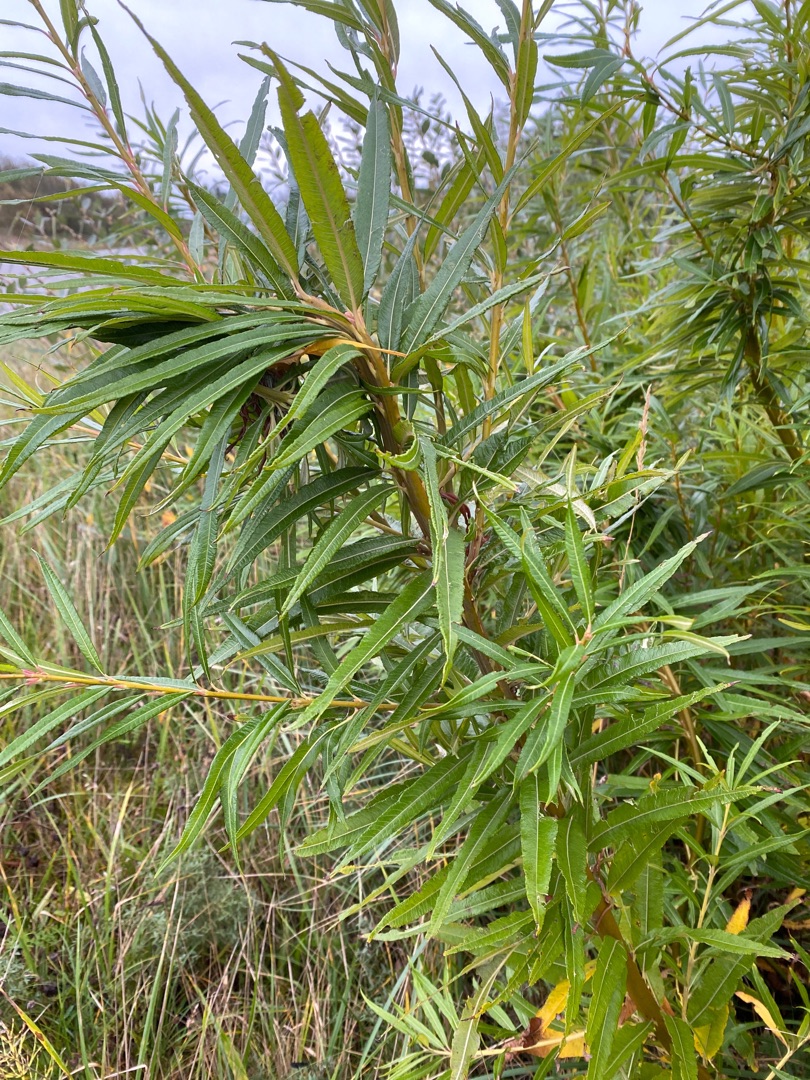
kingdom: Plantae
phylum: Tracheophyta
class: Magnoliopsida
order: Malpighiales
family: Salicaceae
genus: Salix
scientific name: Salix udensis
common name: Sakhalin-pil
